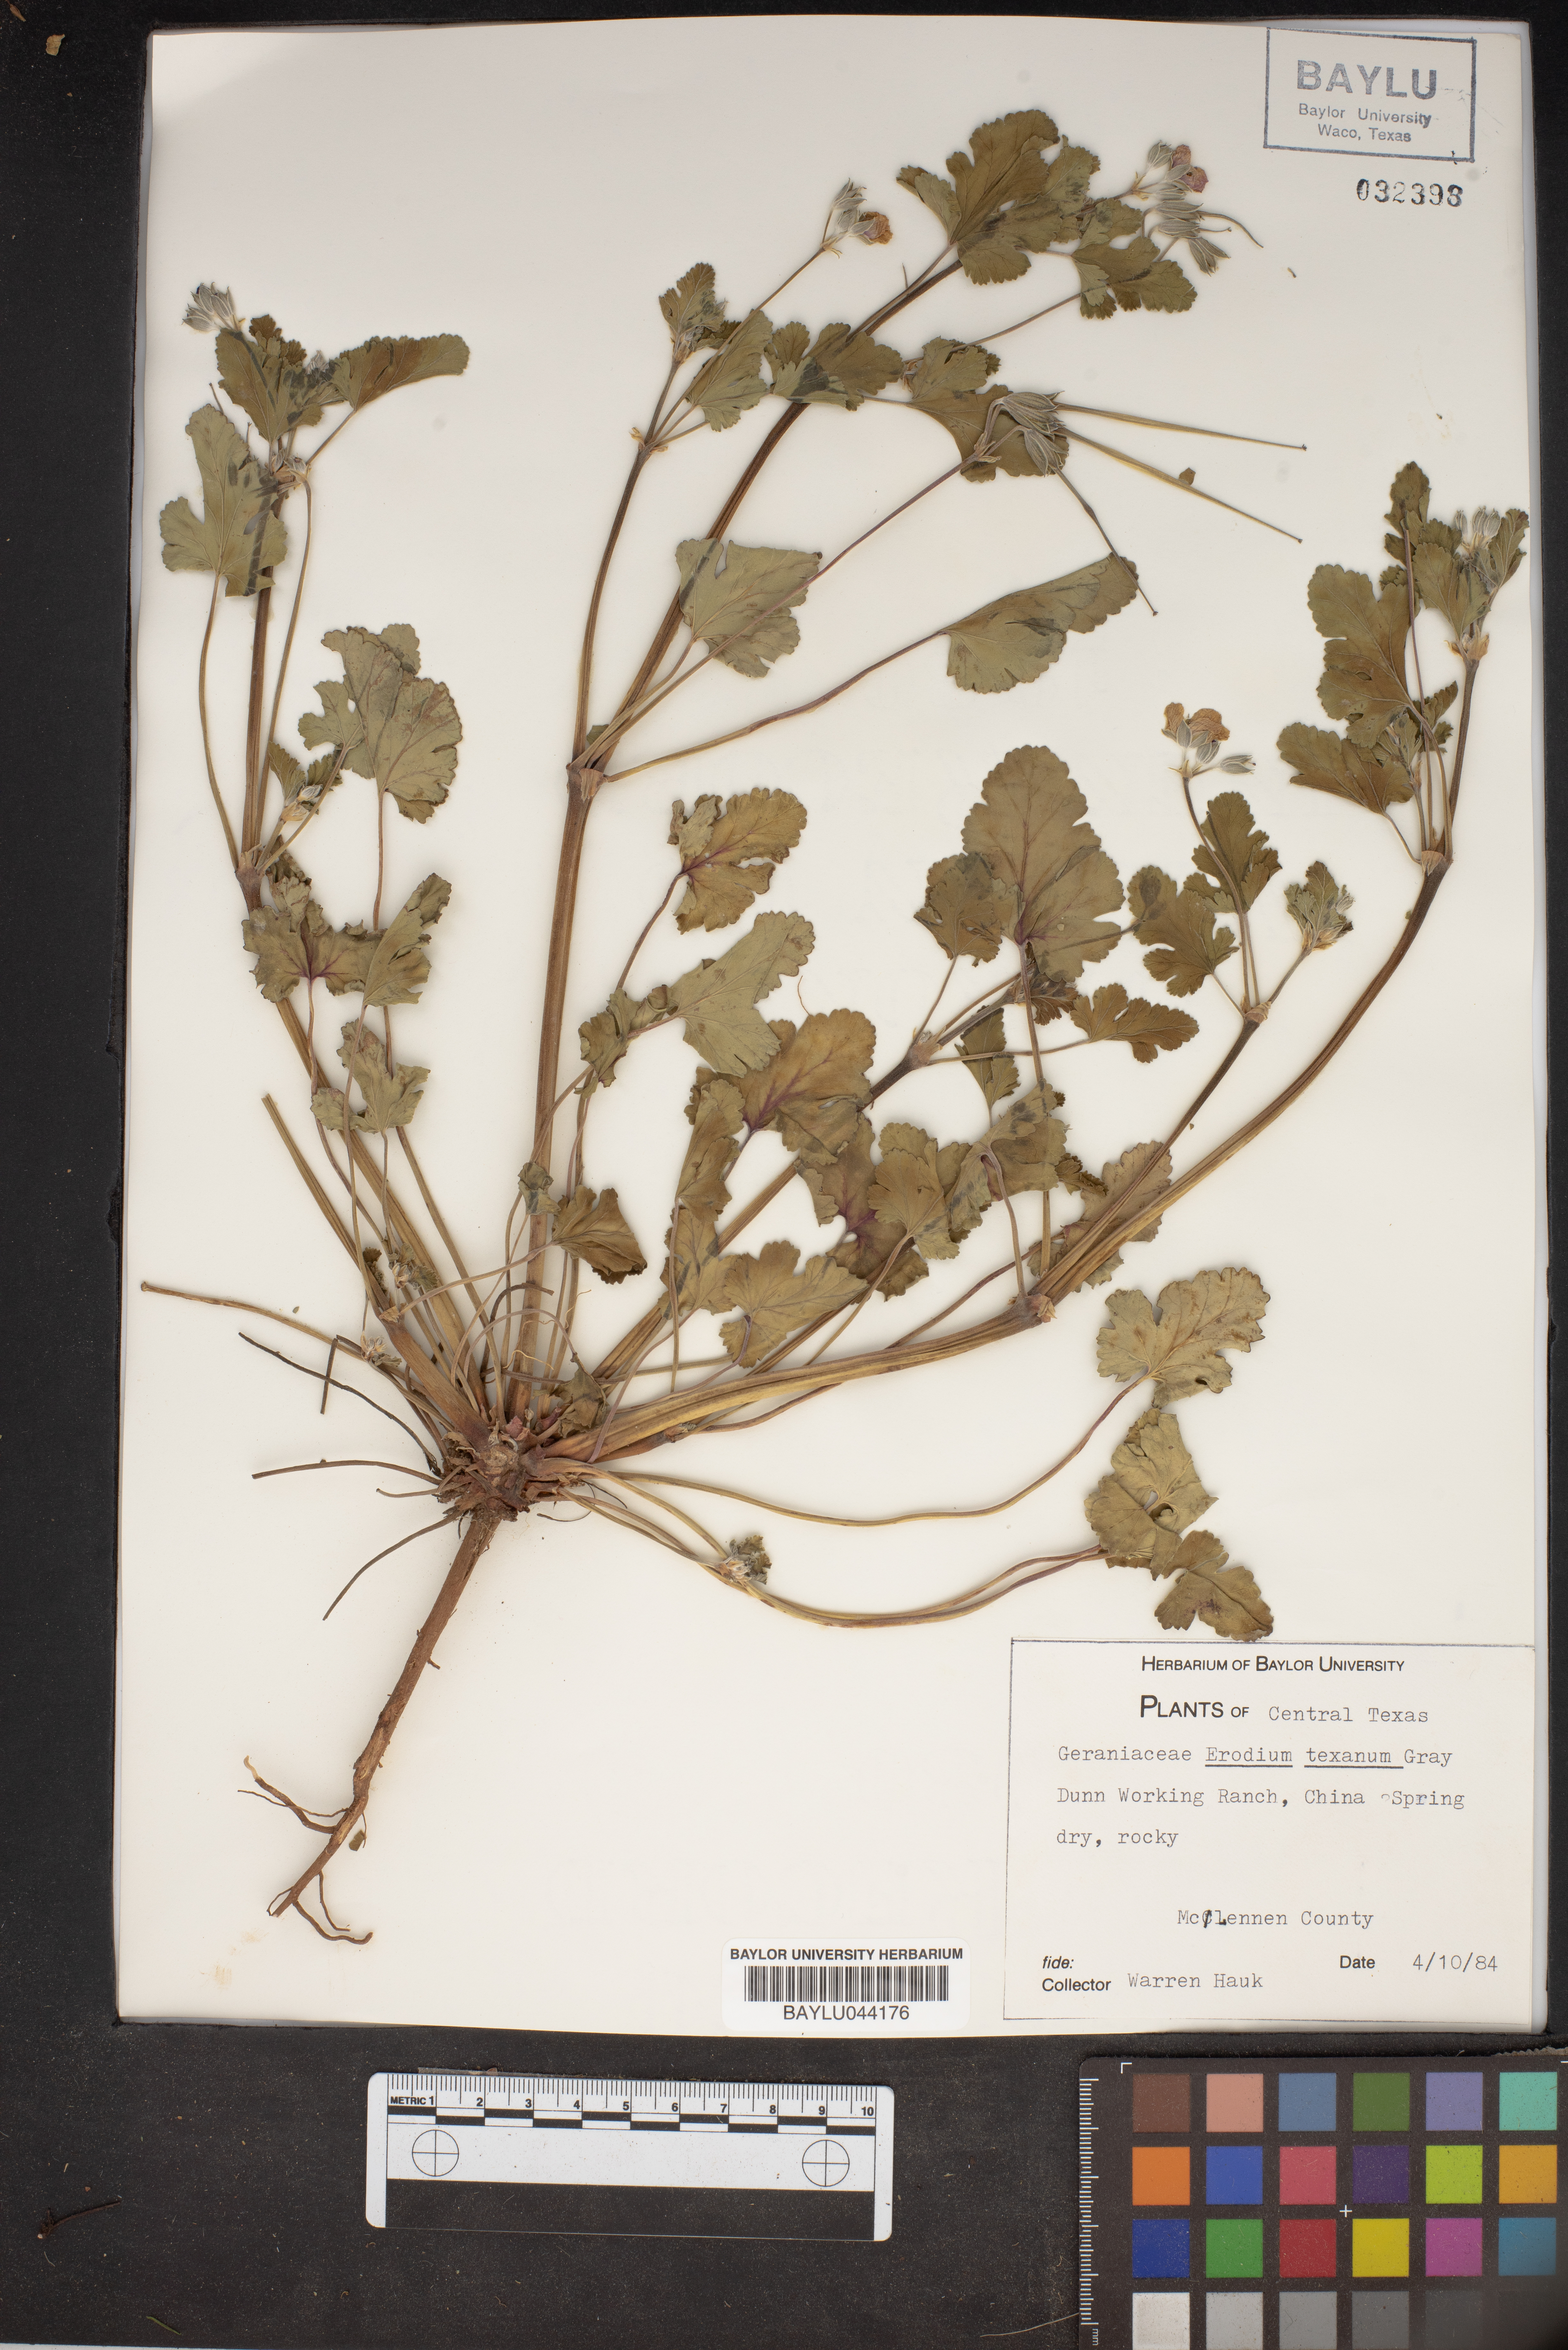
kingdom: Plantae
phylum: Tracheophyta
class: Magnoliopsida
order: Geraniales
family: Geraniaceae
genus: Erodium
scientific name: Erodium texanum
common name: Texas stork's-bill
